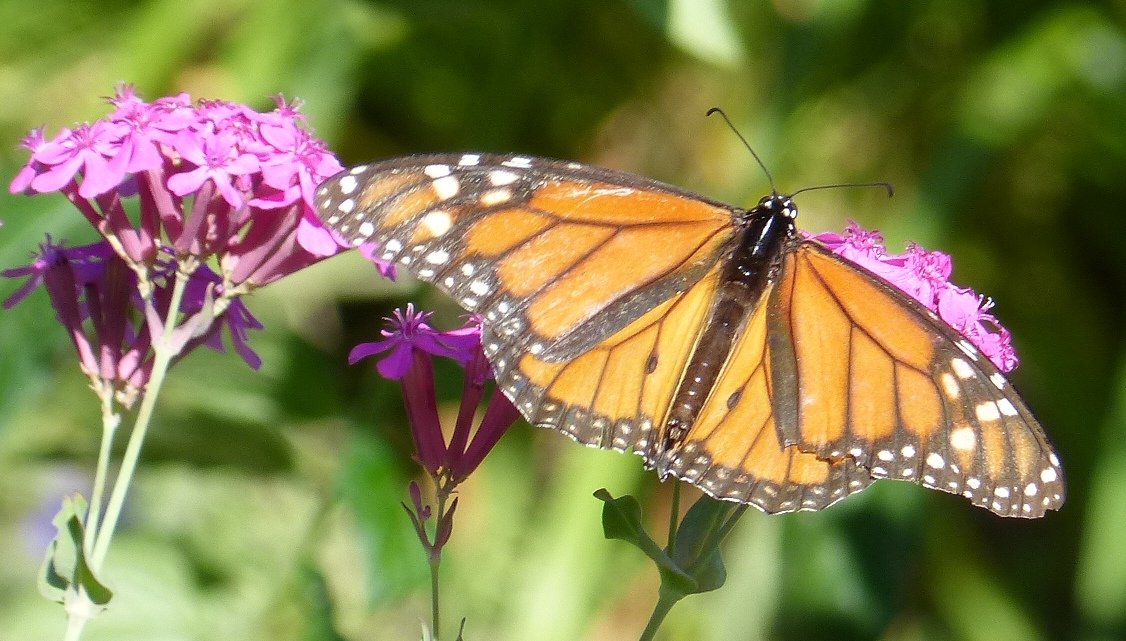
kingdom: Animalia
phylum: Arthropoda
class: Insecta
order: Lepidoptera
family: Nymphalidae
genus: Danaus
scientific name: Danaus plexippus
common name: Monarch
